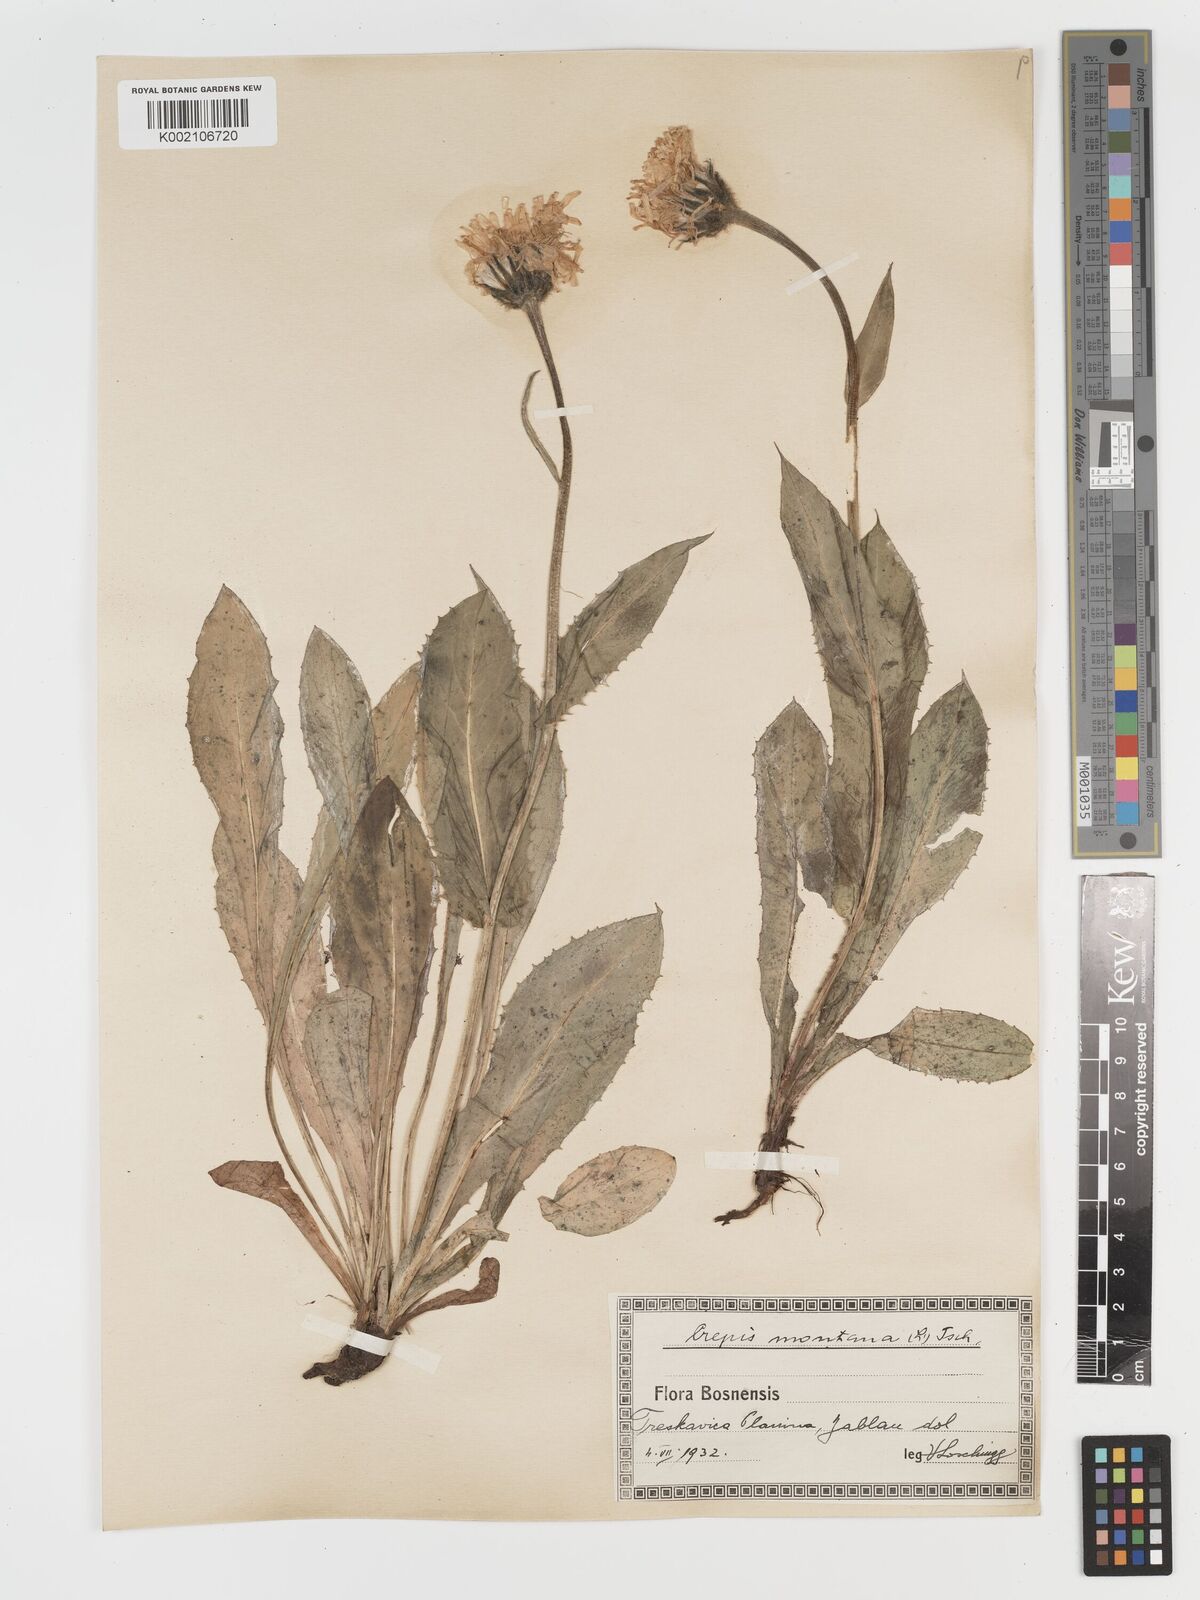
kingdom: Plantae
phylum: Tracheophyta
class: Magnoliopsida
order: Asterales
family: Asteraceae
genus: Crepis
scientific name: Crepis pontana
